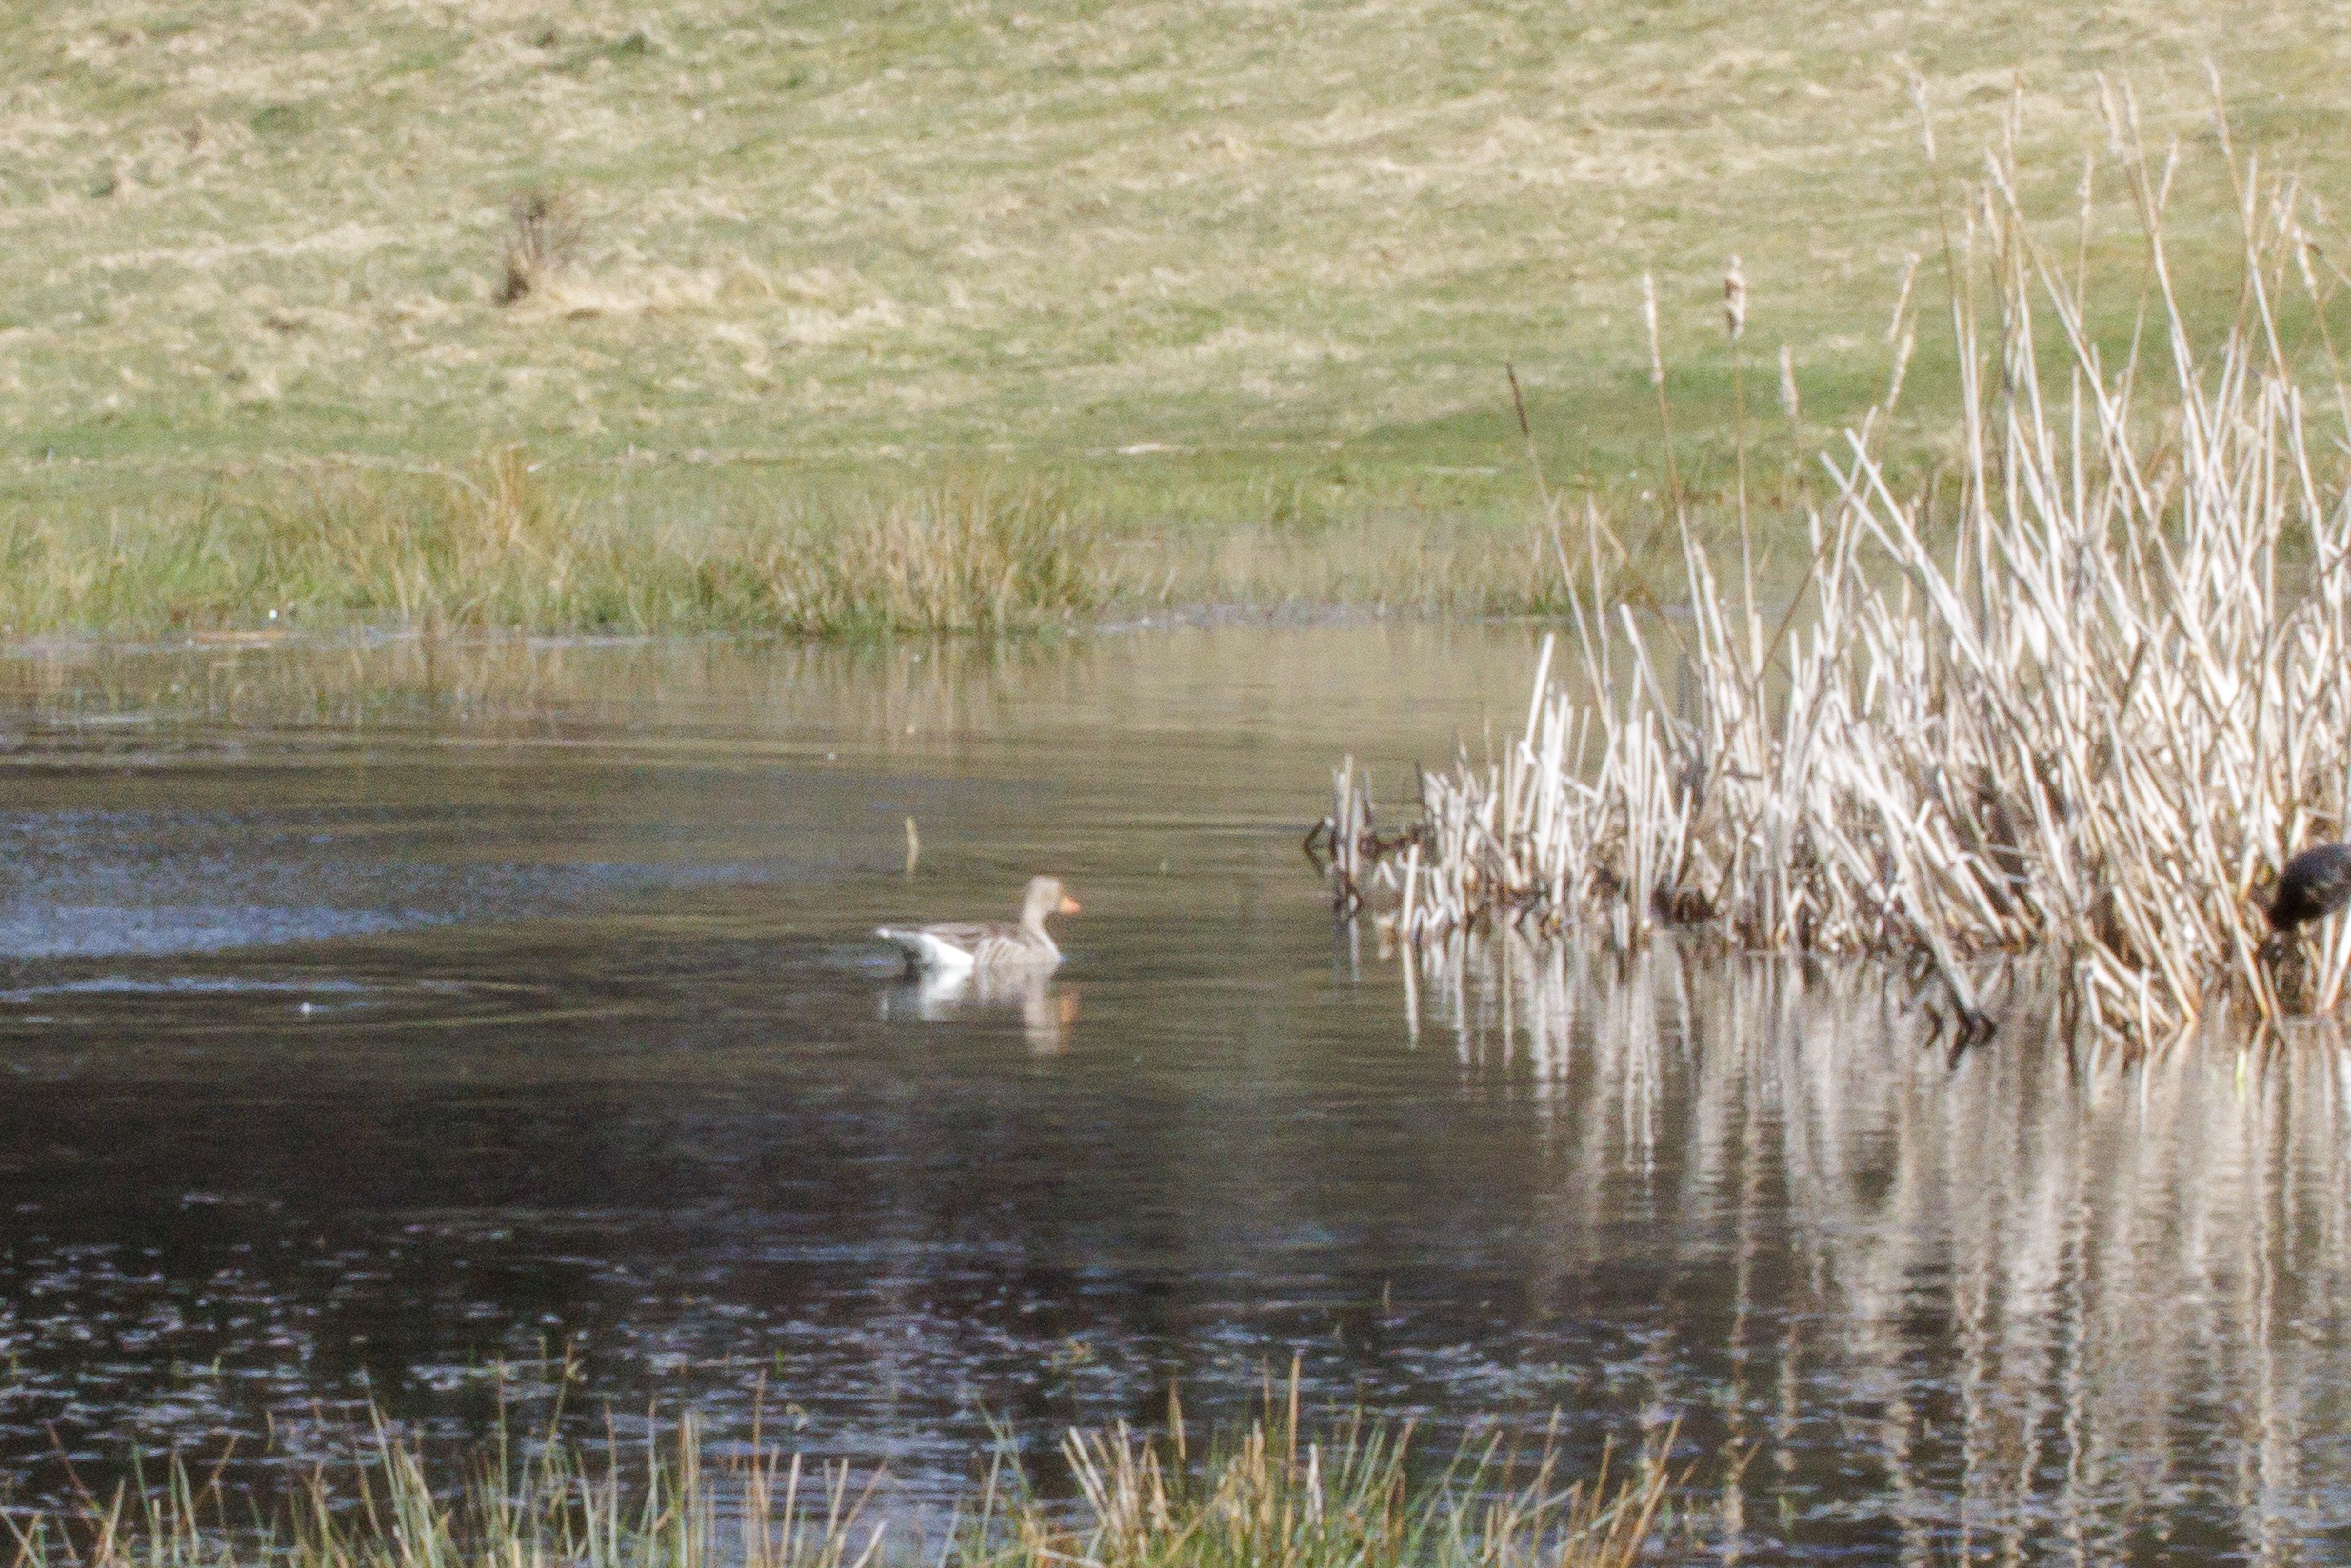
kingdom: Animalia
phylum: Chordata
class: Aves
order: Anseriformes
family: Anatidae
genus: Anser
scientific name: Anser anser
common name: Grågås
